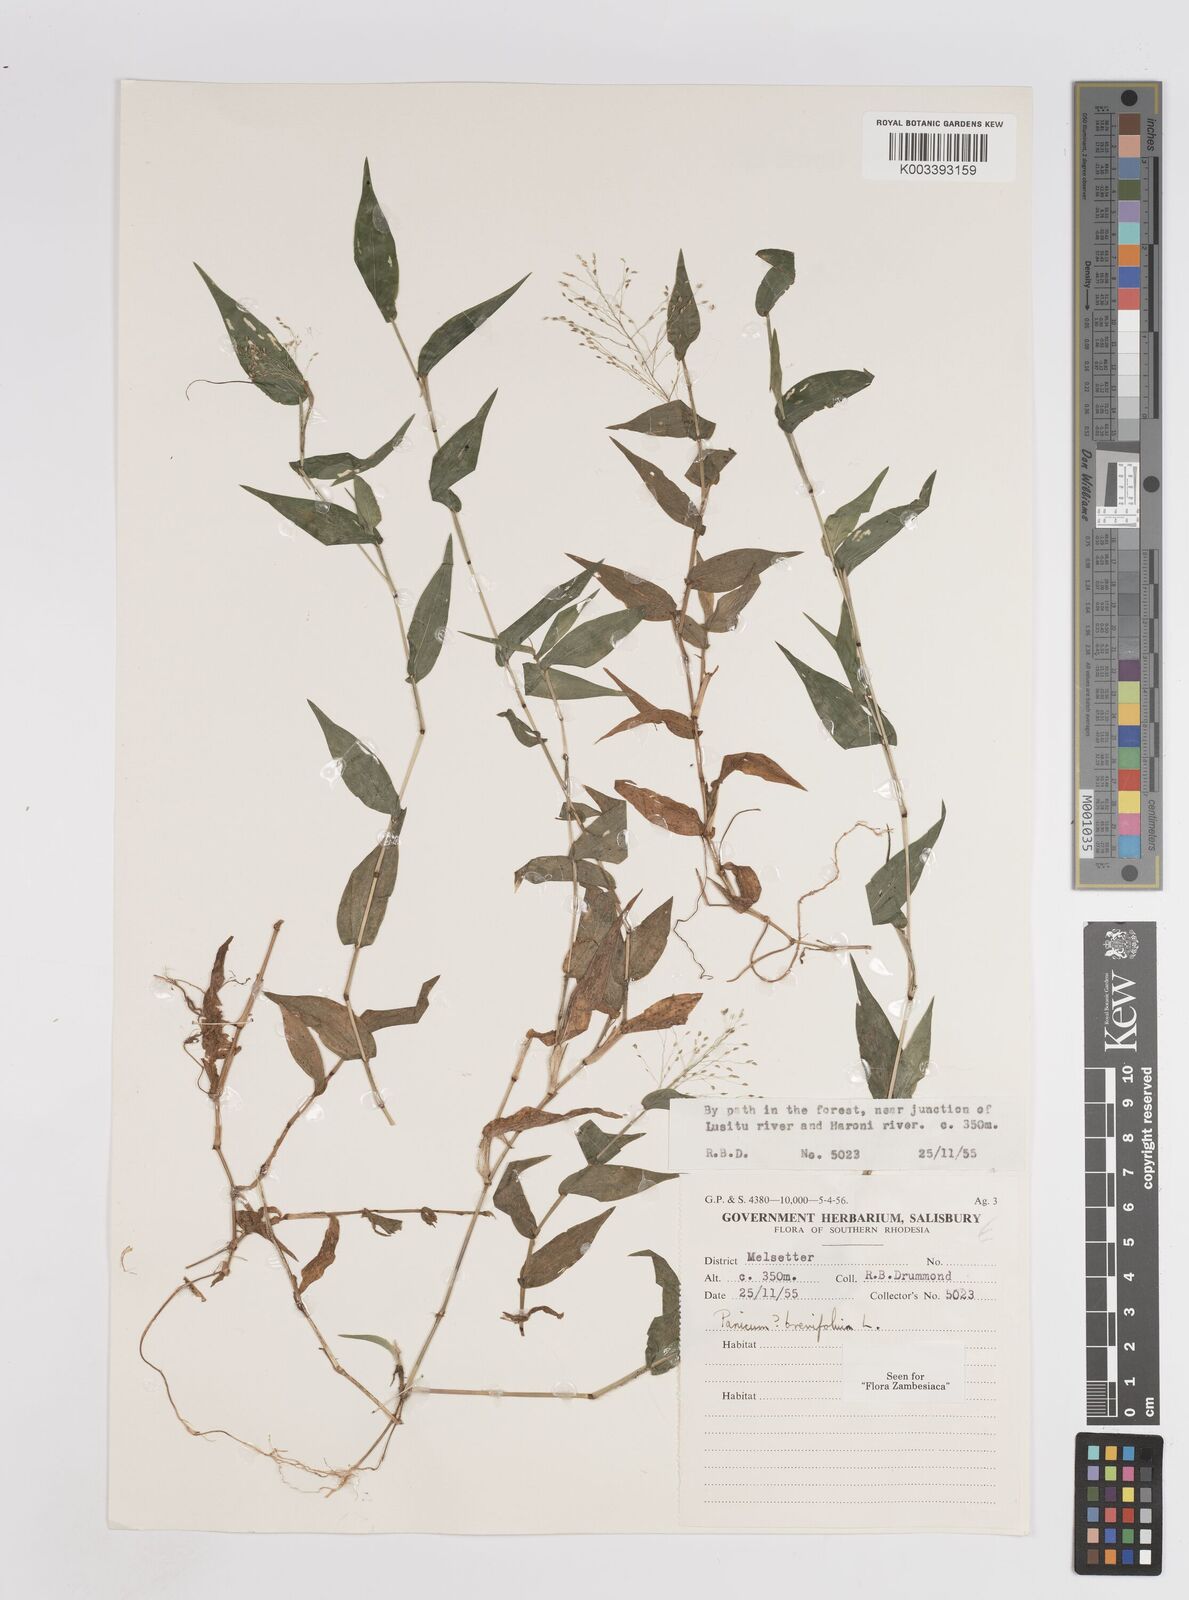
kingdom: Plantae
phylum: Tracheophyta
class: Liliopsida
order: Poales
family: Poaceae
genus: Panicum
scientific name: Panicum brevifolium
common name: Shortleaf panic grass
